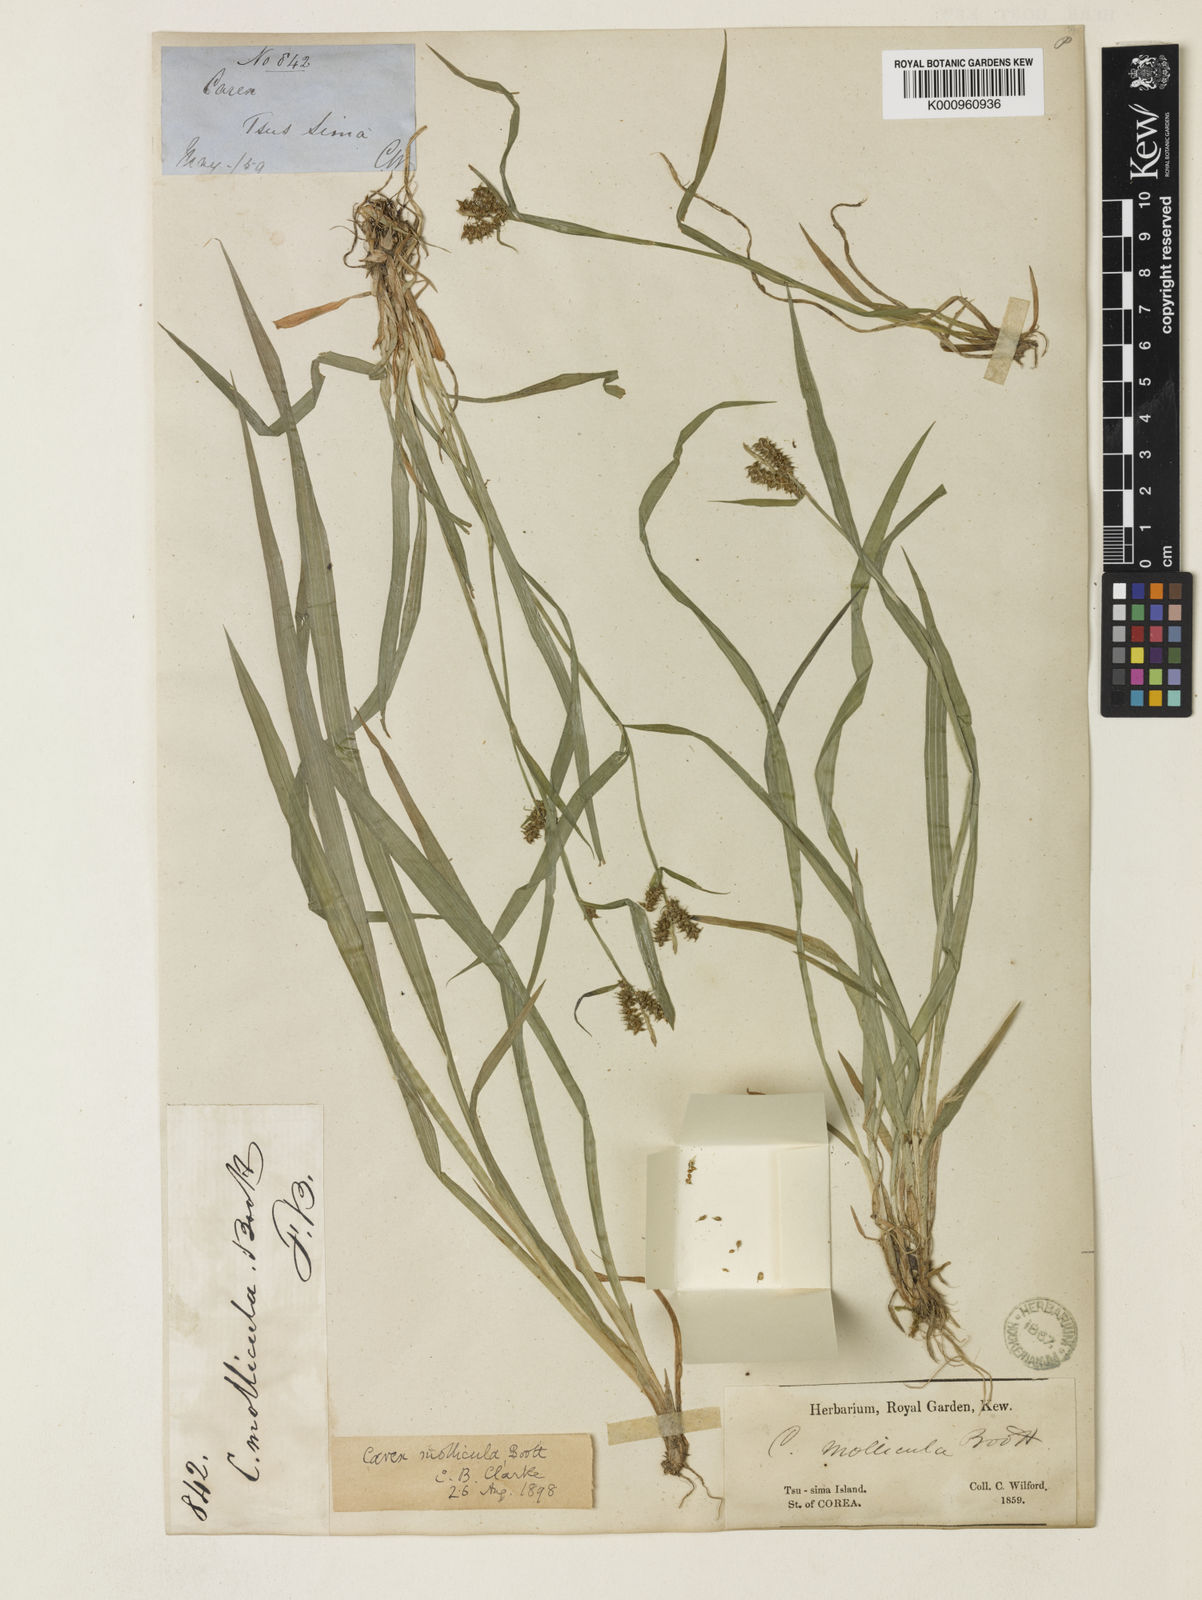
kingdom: Plantae
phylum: Tracheophyta
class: Liliopsida
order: Poales
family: Cyperaceae
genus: Carex
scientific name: Carex mollicula
